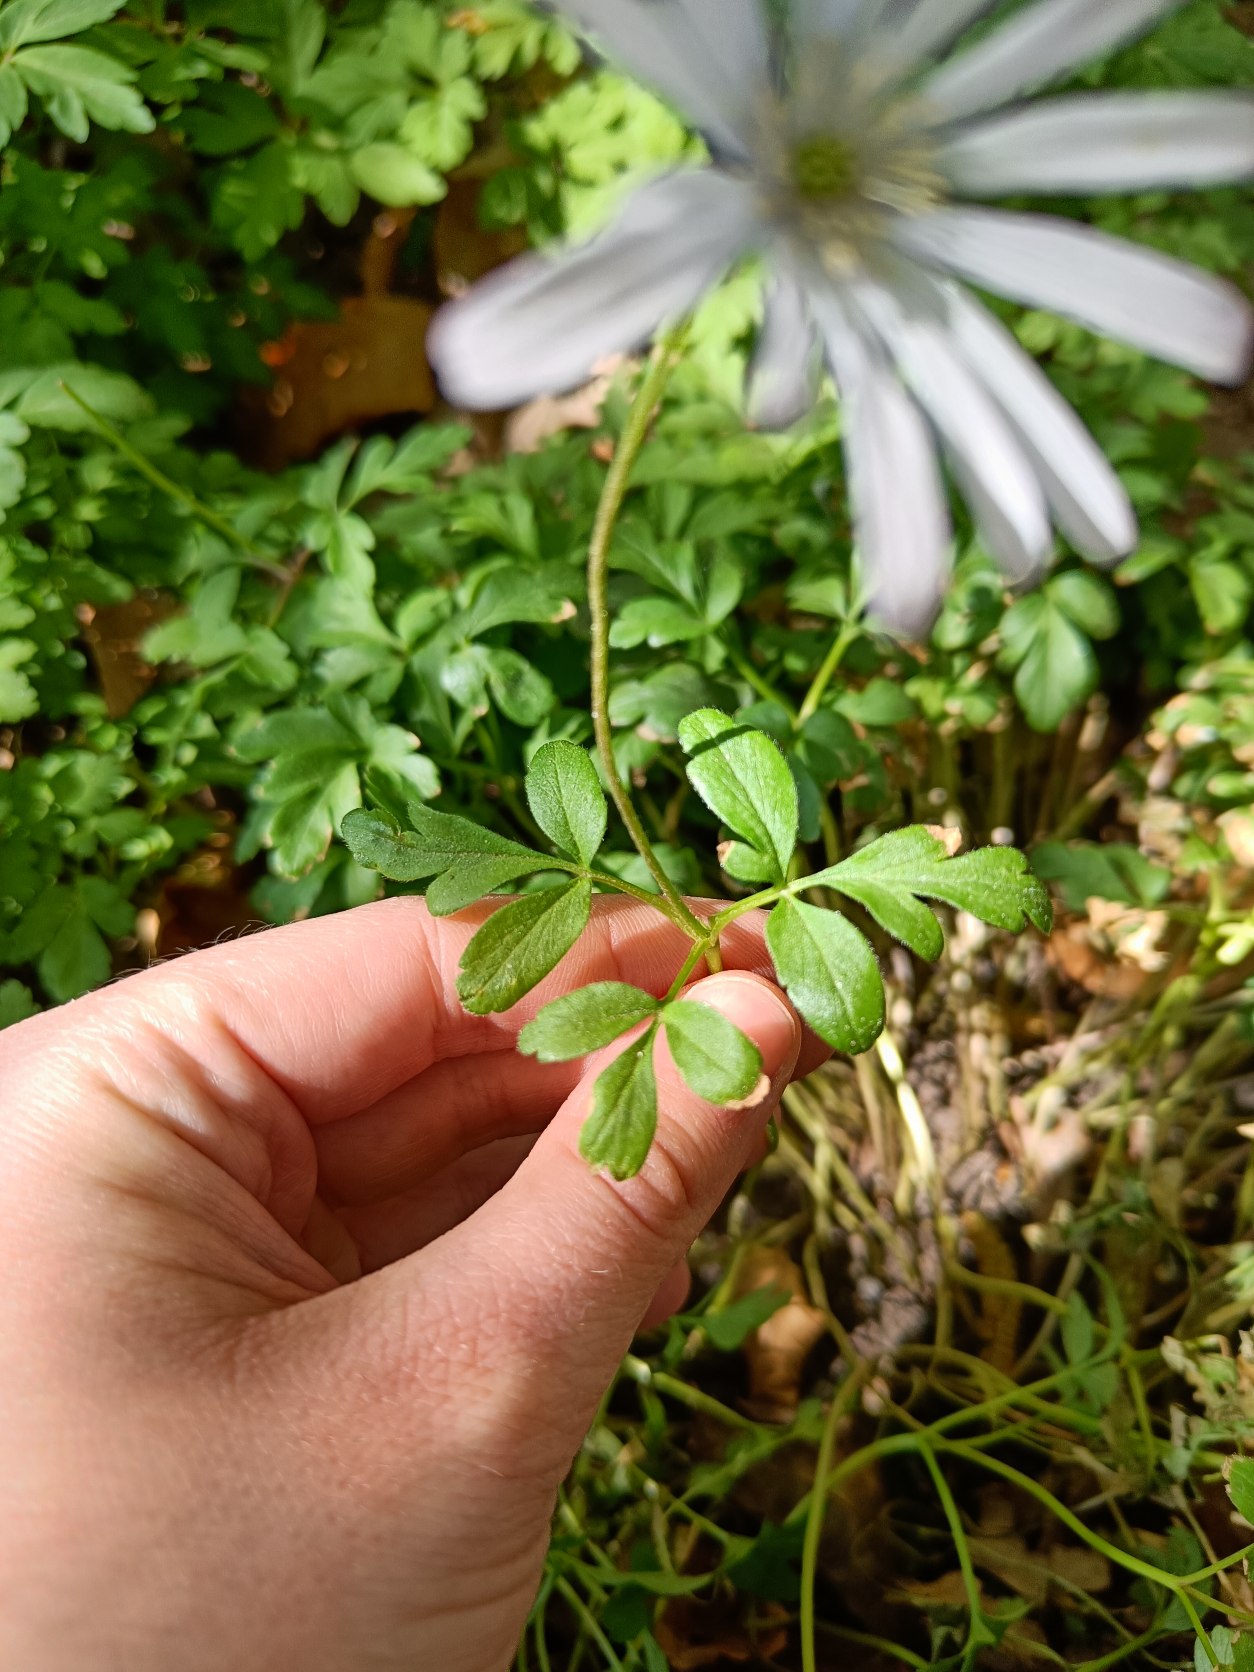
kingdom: Plantae
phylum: Tracheophyta
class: Magnoliopsida
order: Ranunculales
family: Ranunculaceae
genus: Anemone
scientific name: Anemone apennina
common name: Blegblå anemone
